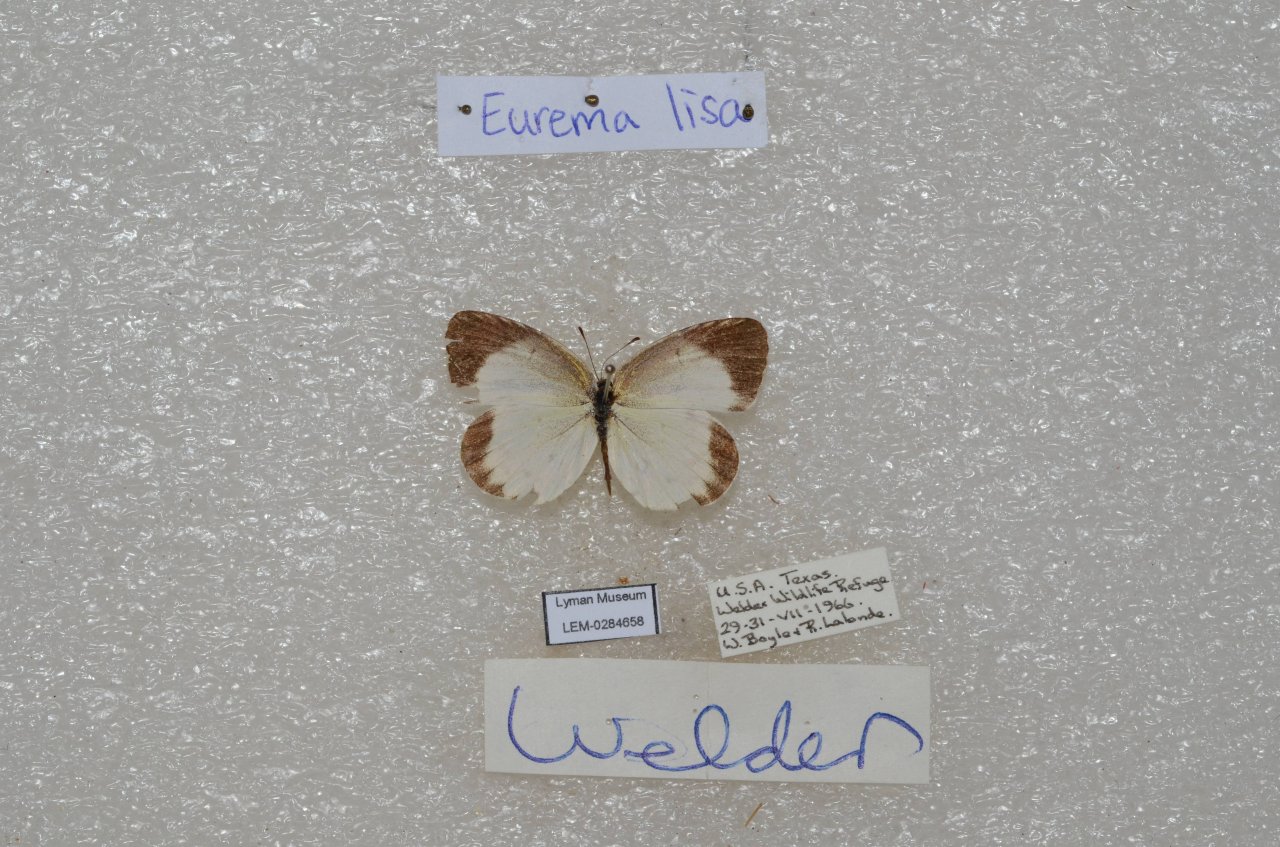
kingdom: Animalia
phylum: Arthropoda
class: Insecta
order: Lepidoptera
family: Pieridae
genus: Pyrisitia
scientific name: Pyrisitia lisa
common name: Little Yellow
